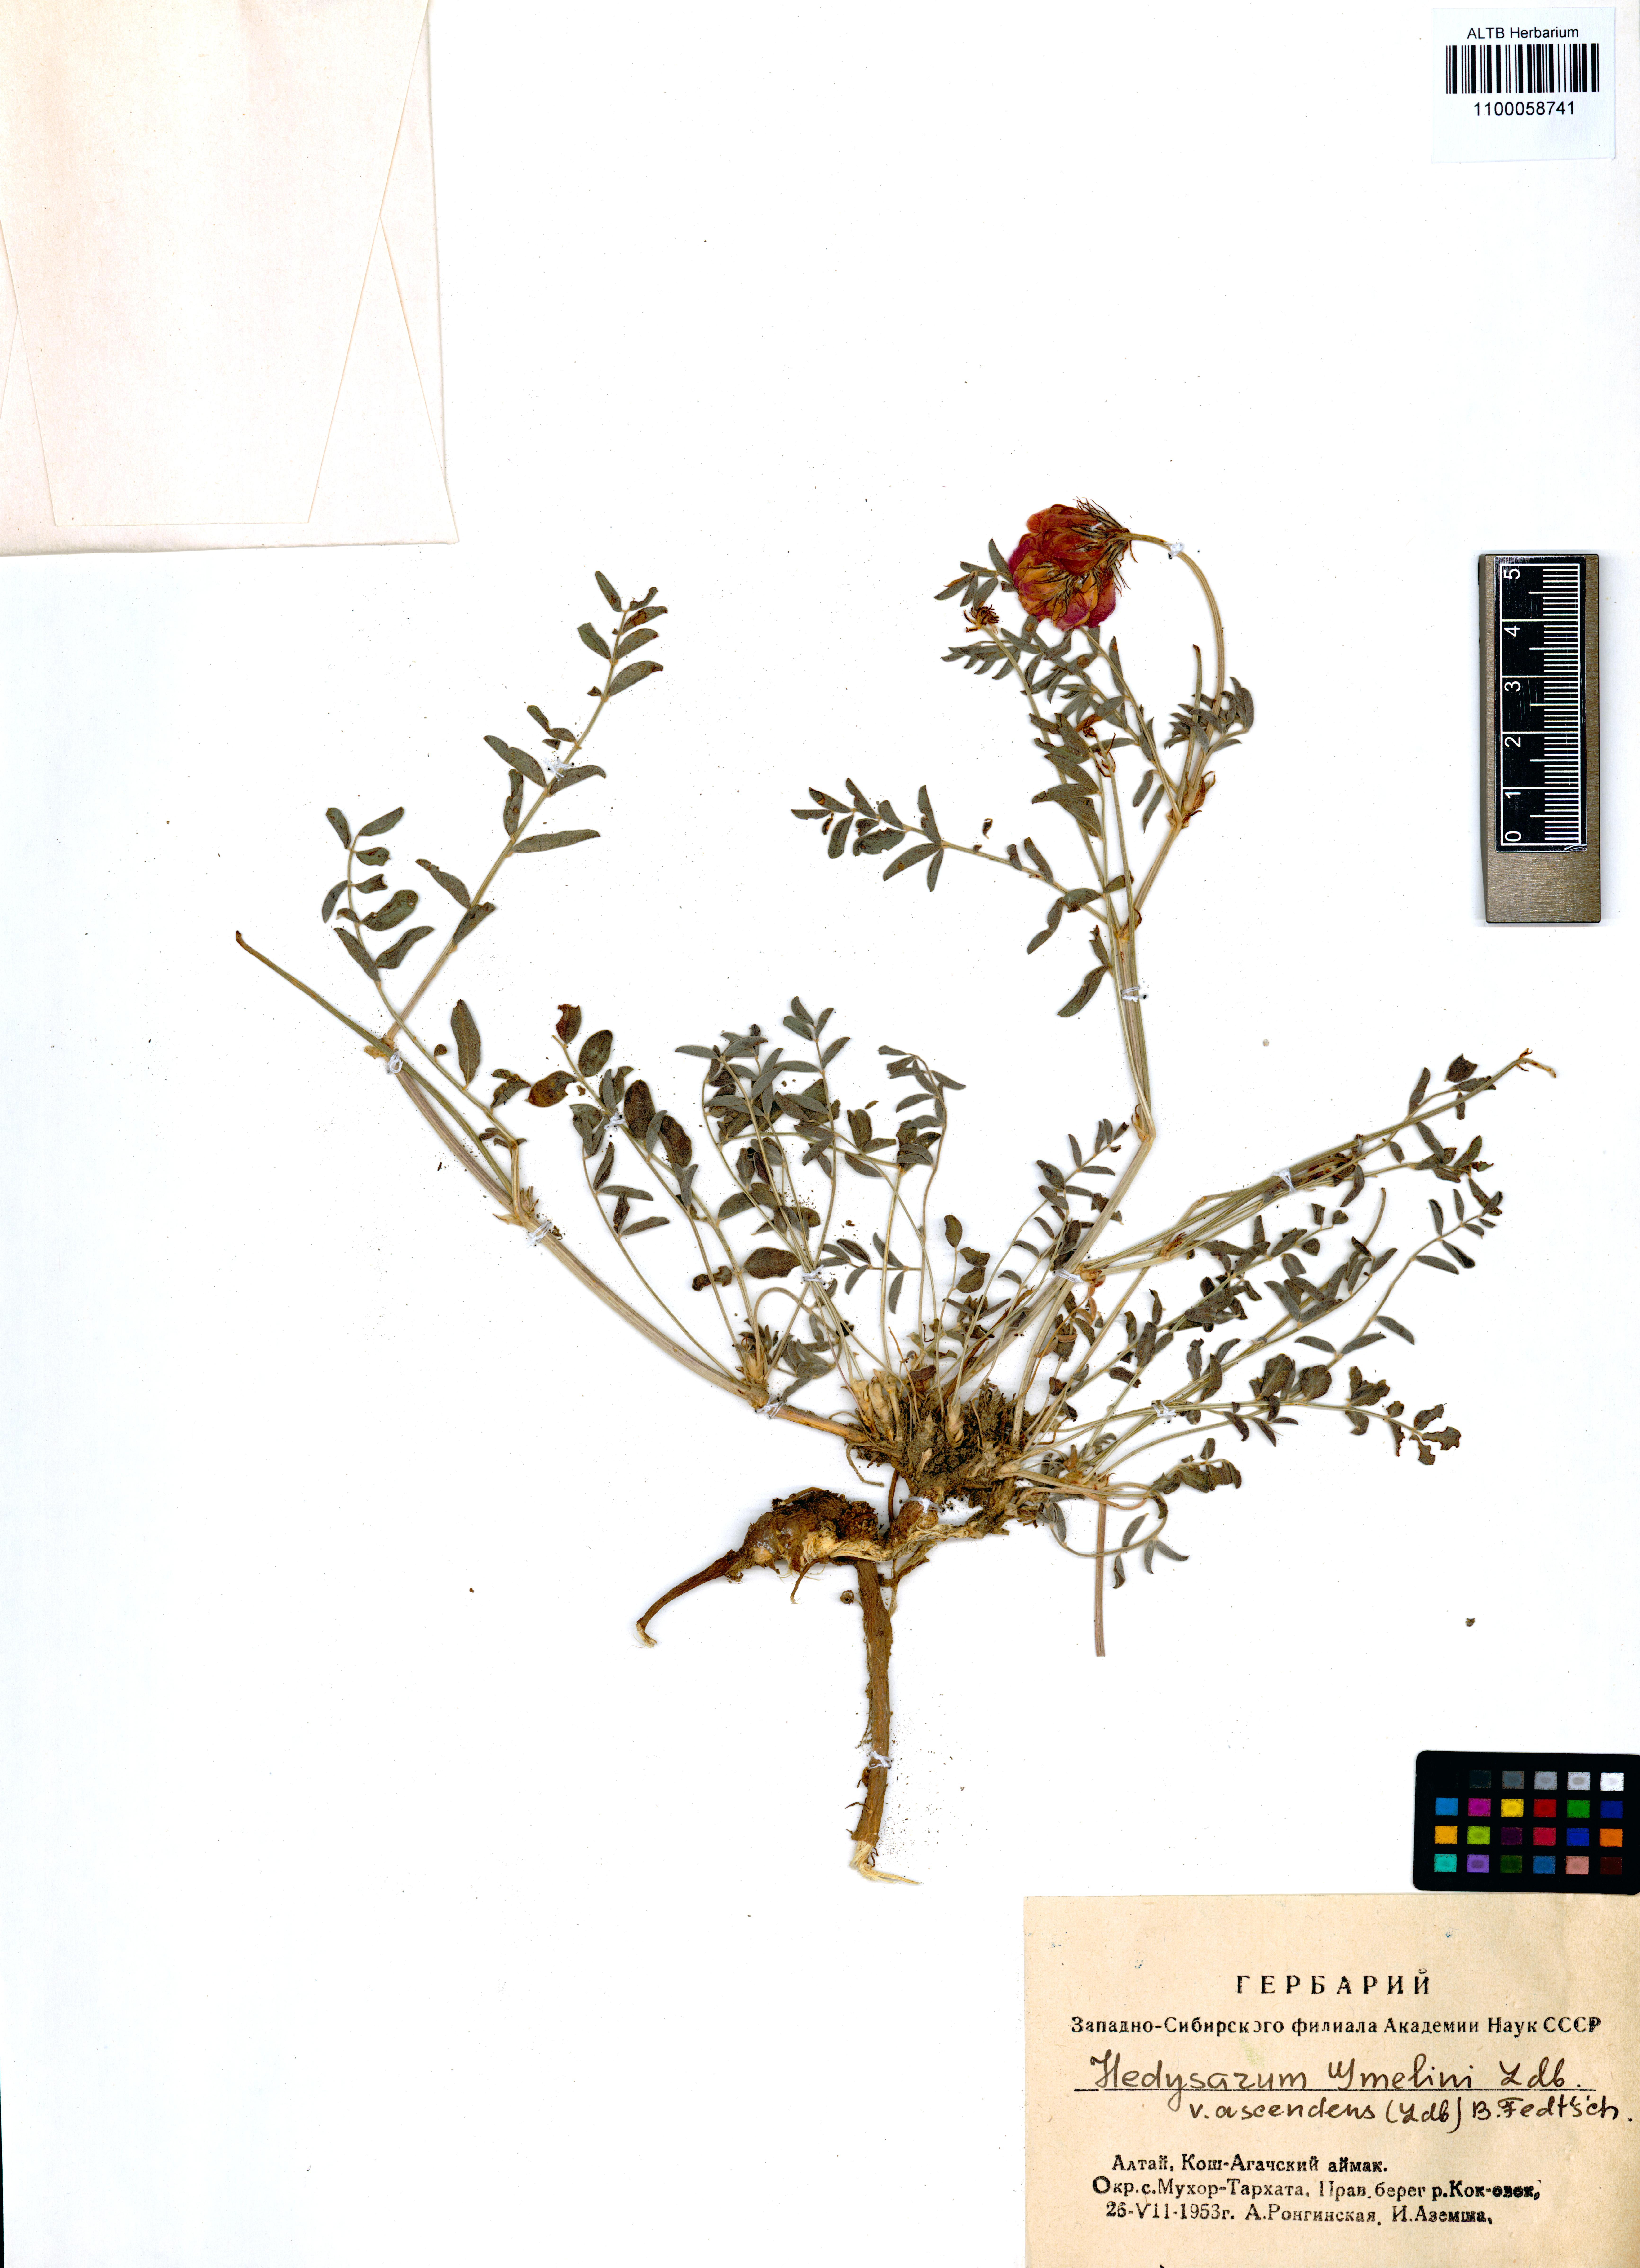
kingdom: Plantae
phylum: Tracheophyta
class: Magnoliopsida
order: Fabales
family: Fabaceae
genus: Hedysarum
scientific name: Hedysarum gmelinii
